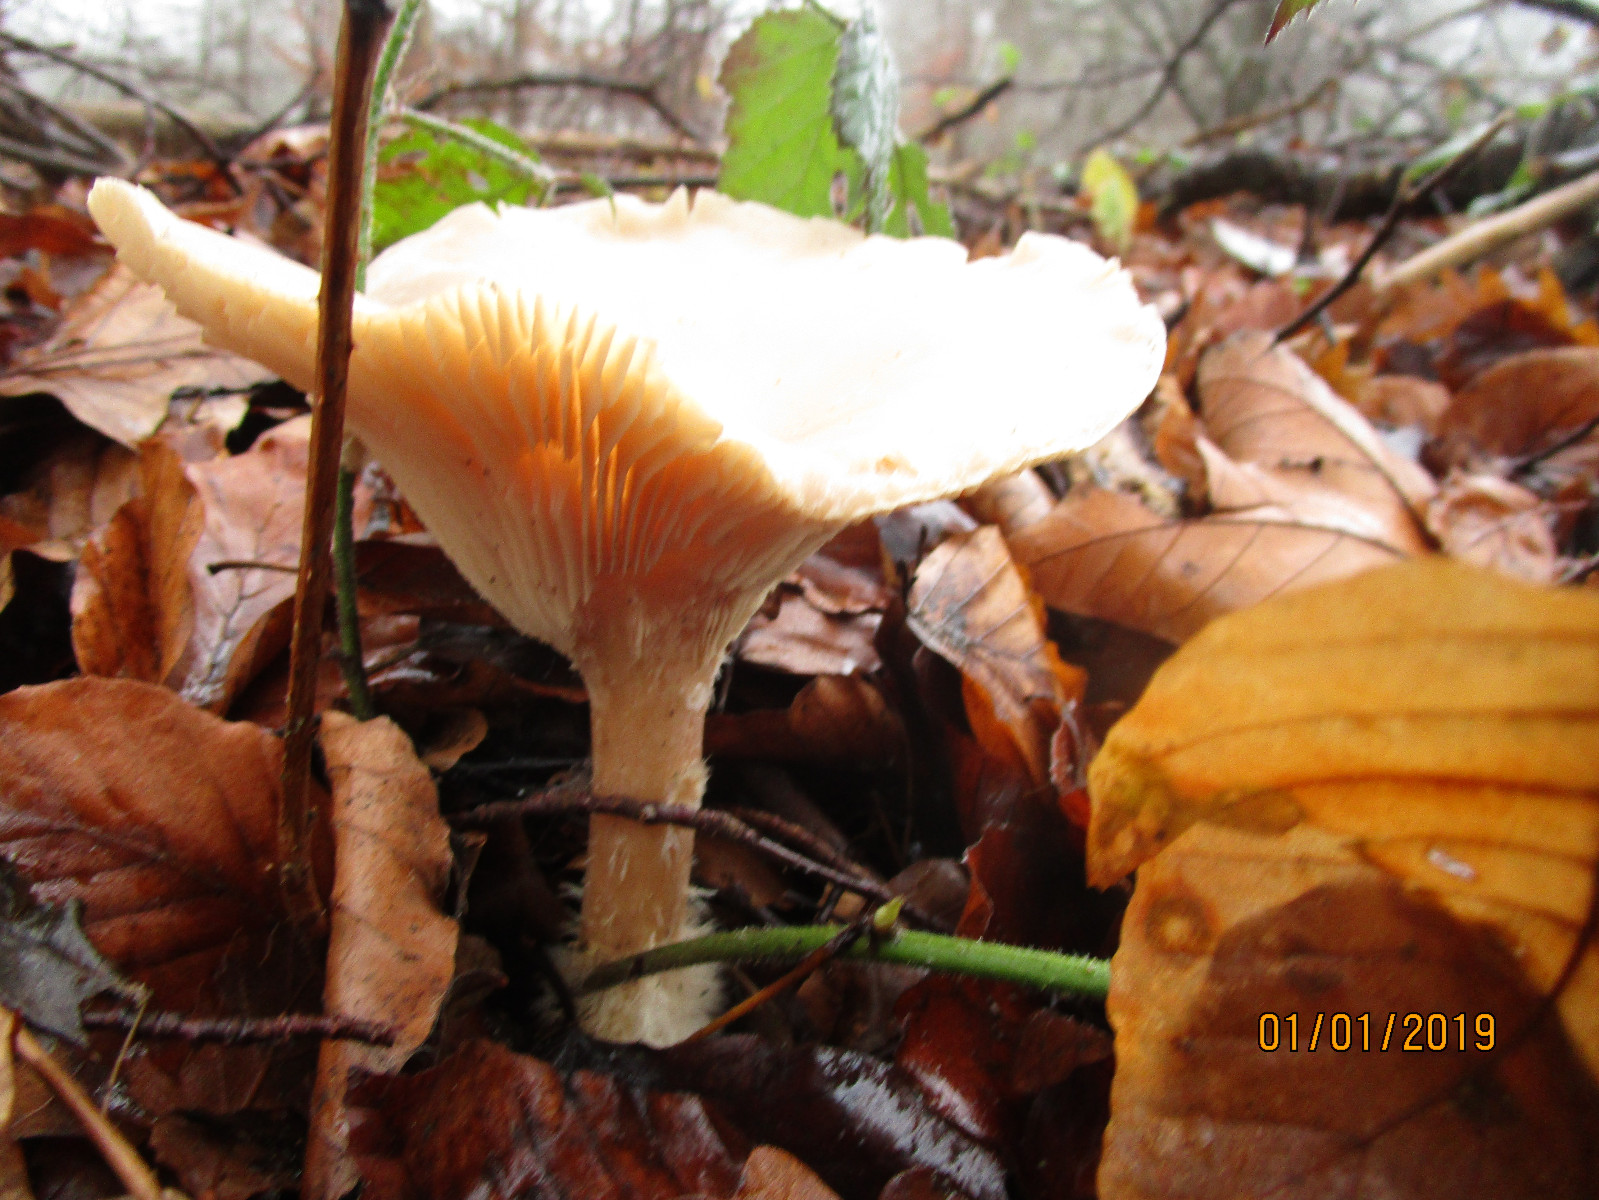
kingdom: Fungi
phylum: Basidiomycota
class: Agaricomycetes
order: Agaricales
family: Tricholomataceae
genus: Infundibulicybe
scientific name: Infundibulicybe geotropa
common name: stor tragthat
